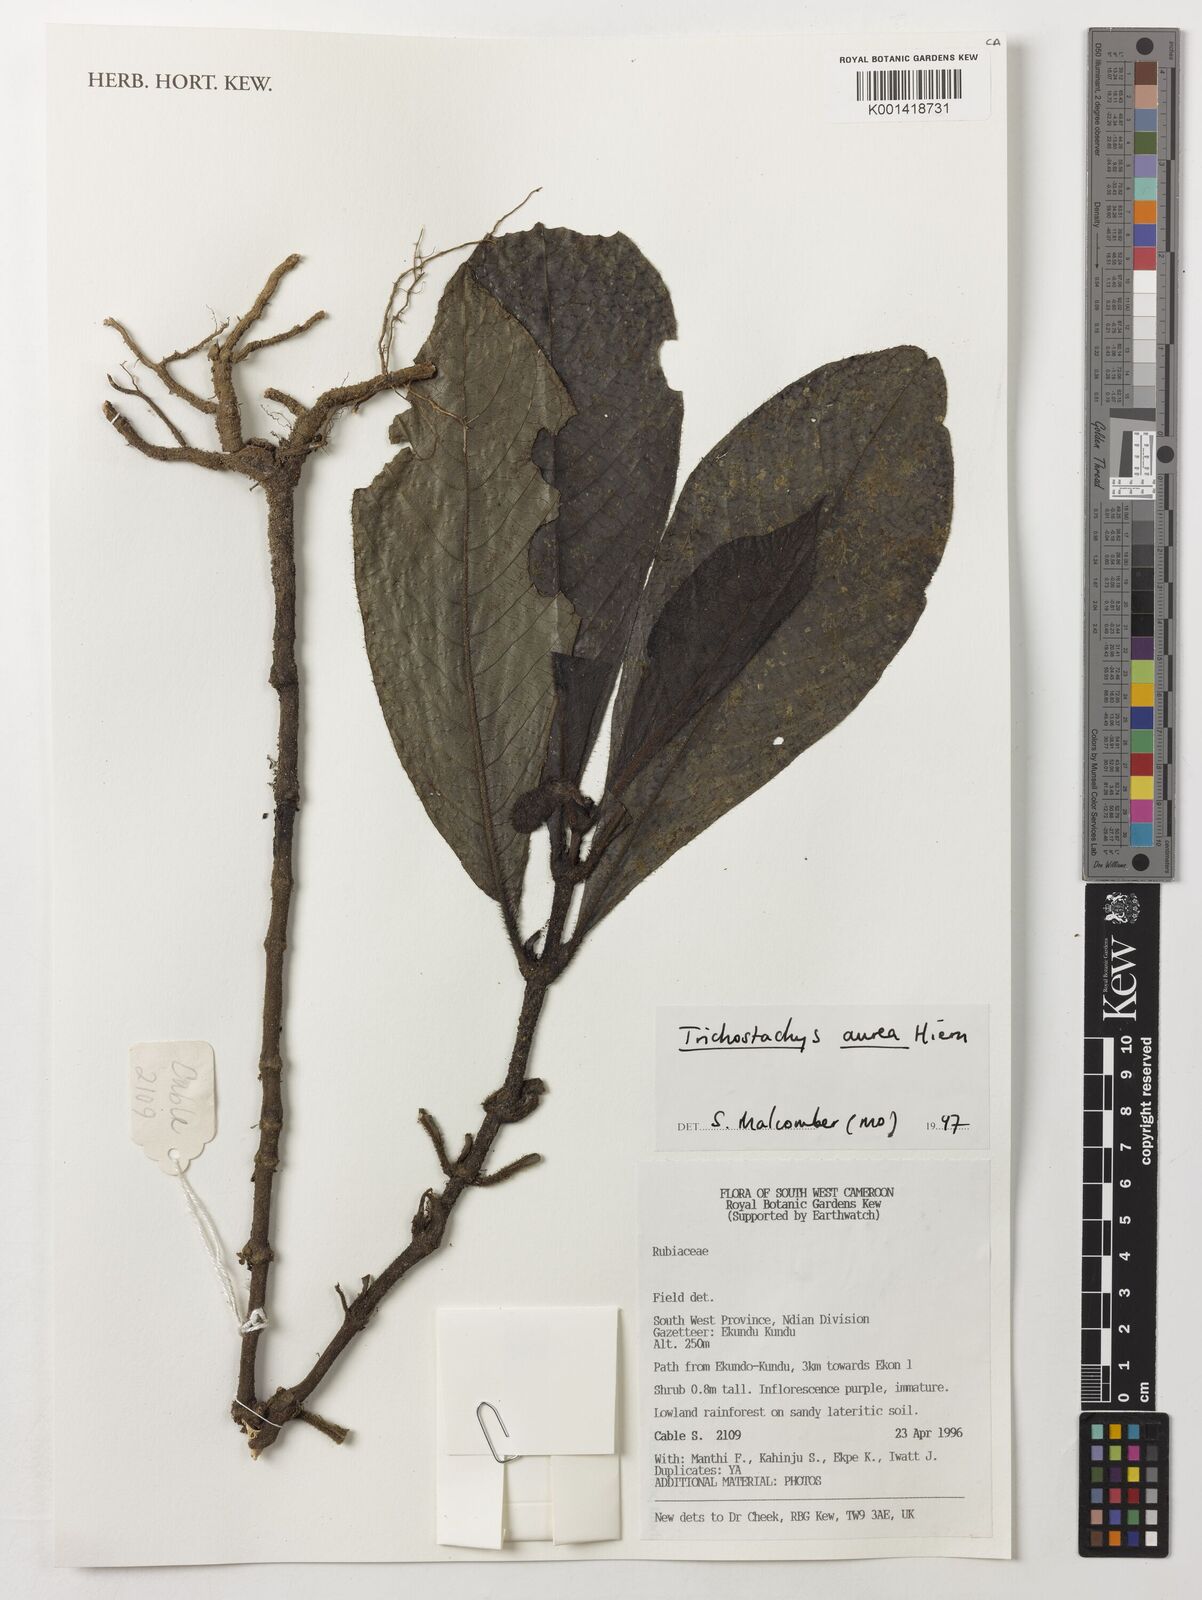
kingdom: Plantae
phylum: Tracheophyta
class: Magnoliopsida
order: Gentianales
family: Rubiaceae
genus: Trichostachys
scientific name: Trichostachys aurea
